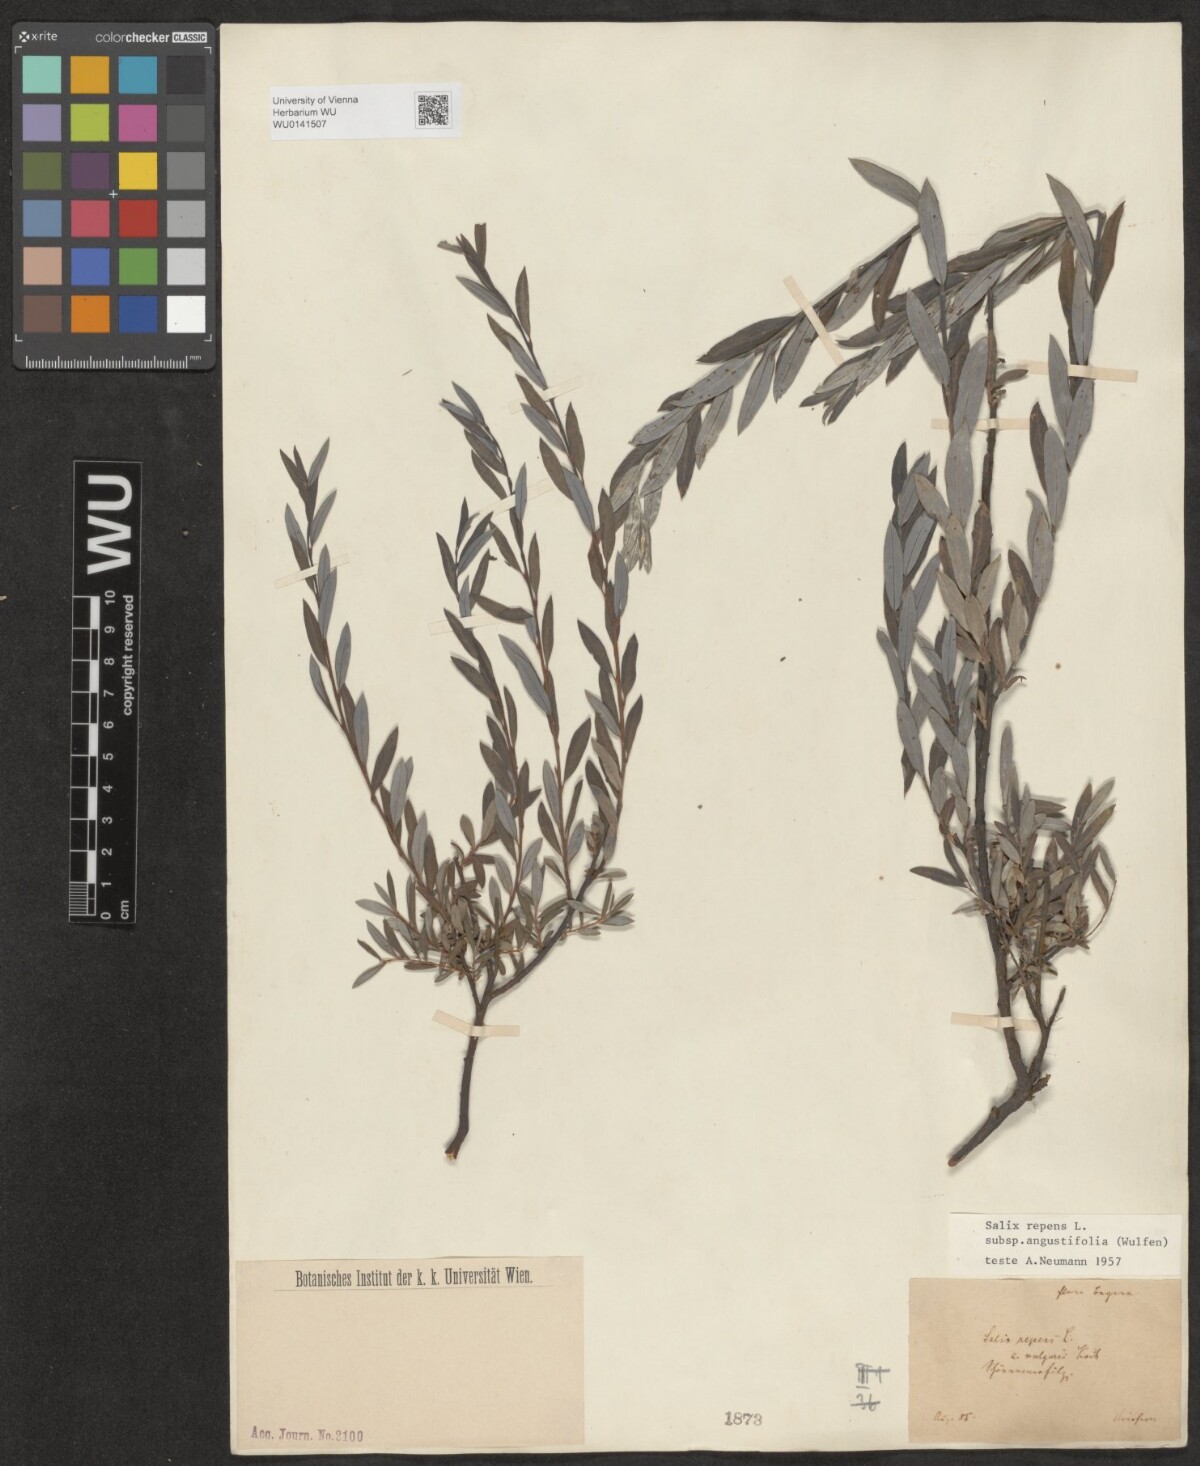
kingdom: Plantae
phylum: Tracheophyta
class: Magnoliopsida
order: Malpighiales
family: Salicaceae
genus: Salix
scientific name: Salix rosmarinifolia
